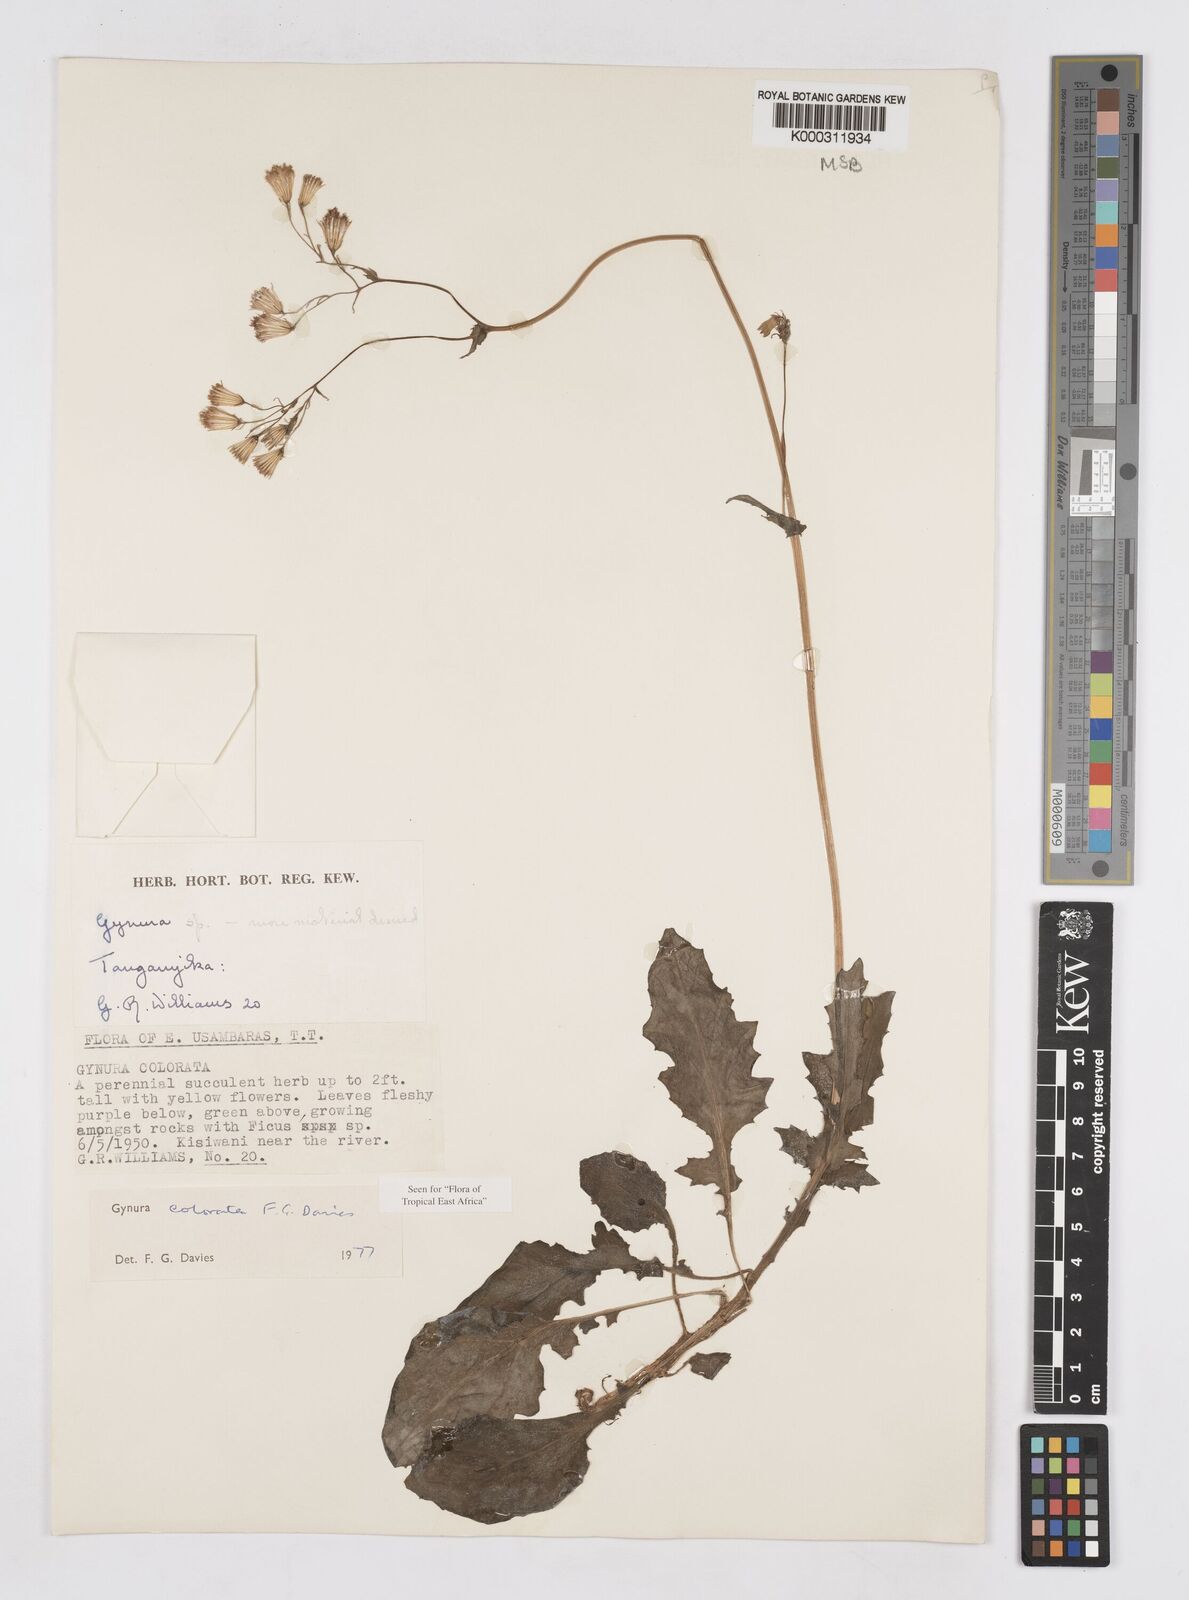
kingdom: Plantae
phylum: Tracheophyta
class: Magnoliopsida
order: Asterales
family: Asteraceae
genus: Gynura
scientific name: Gynura colorata
